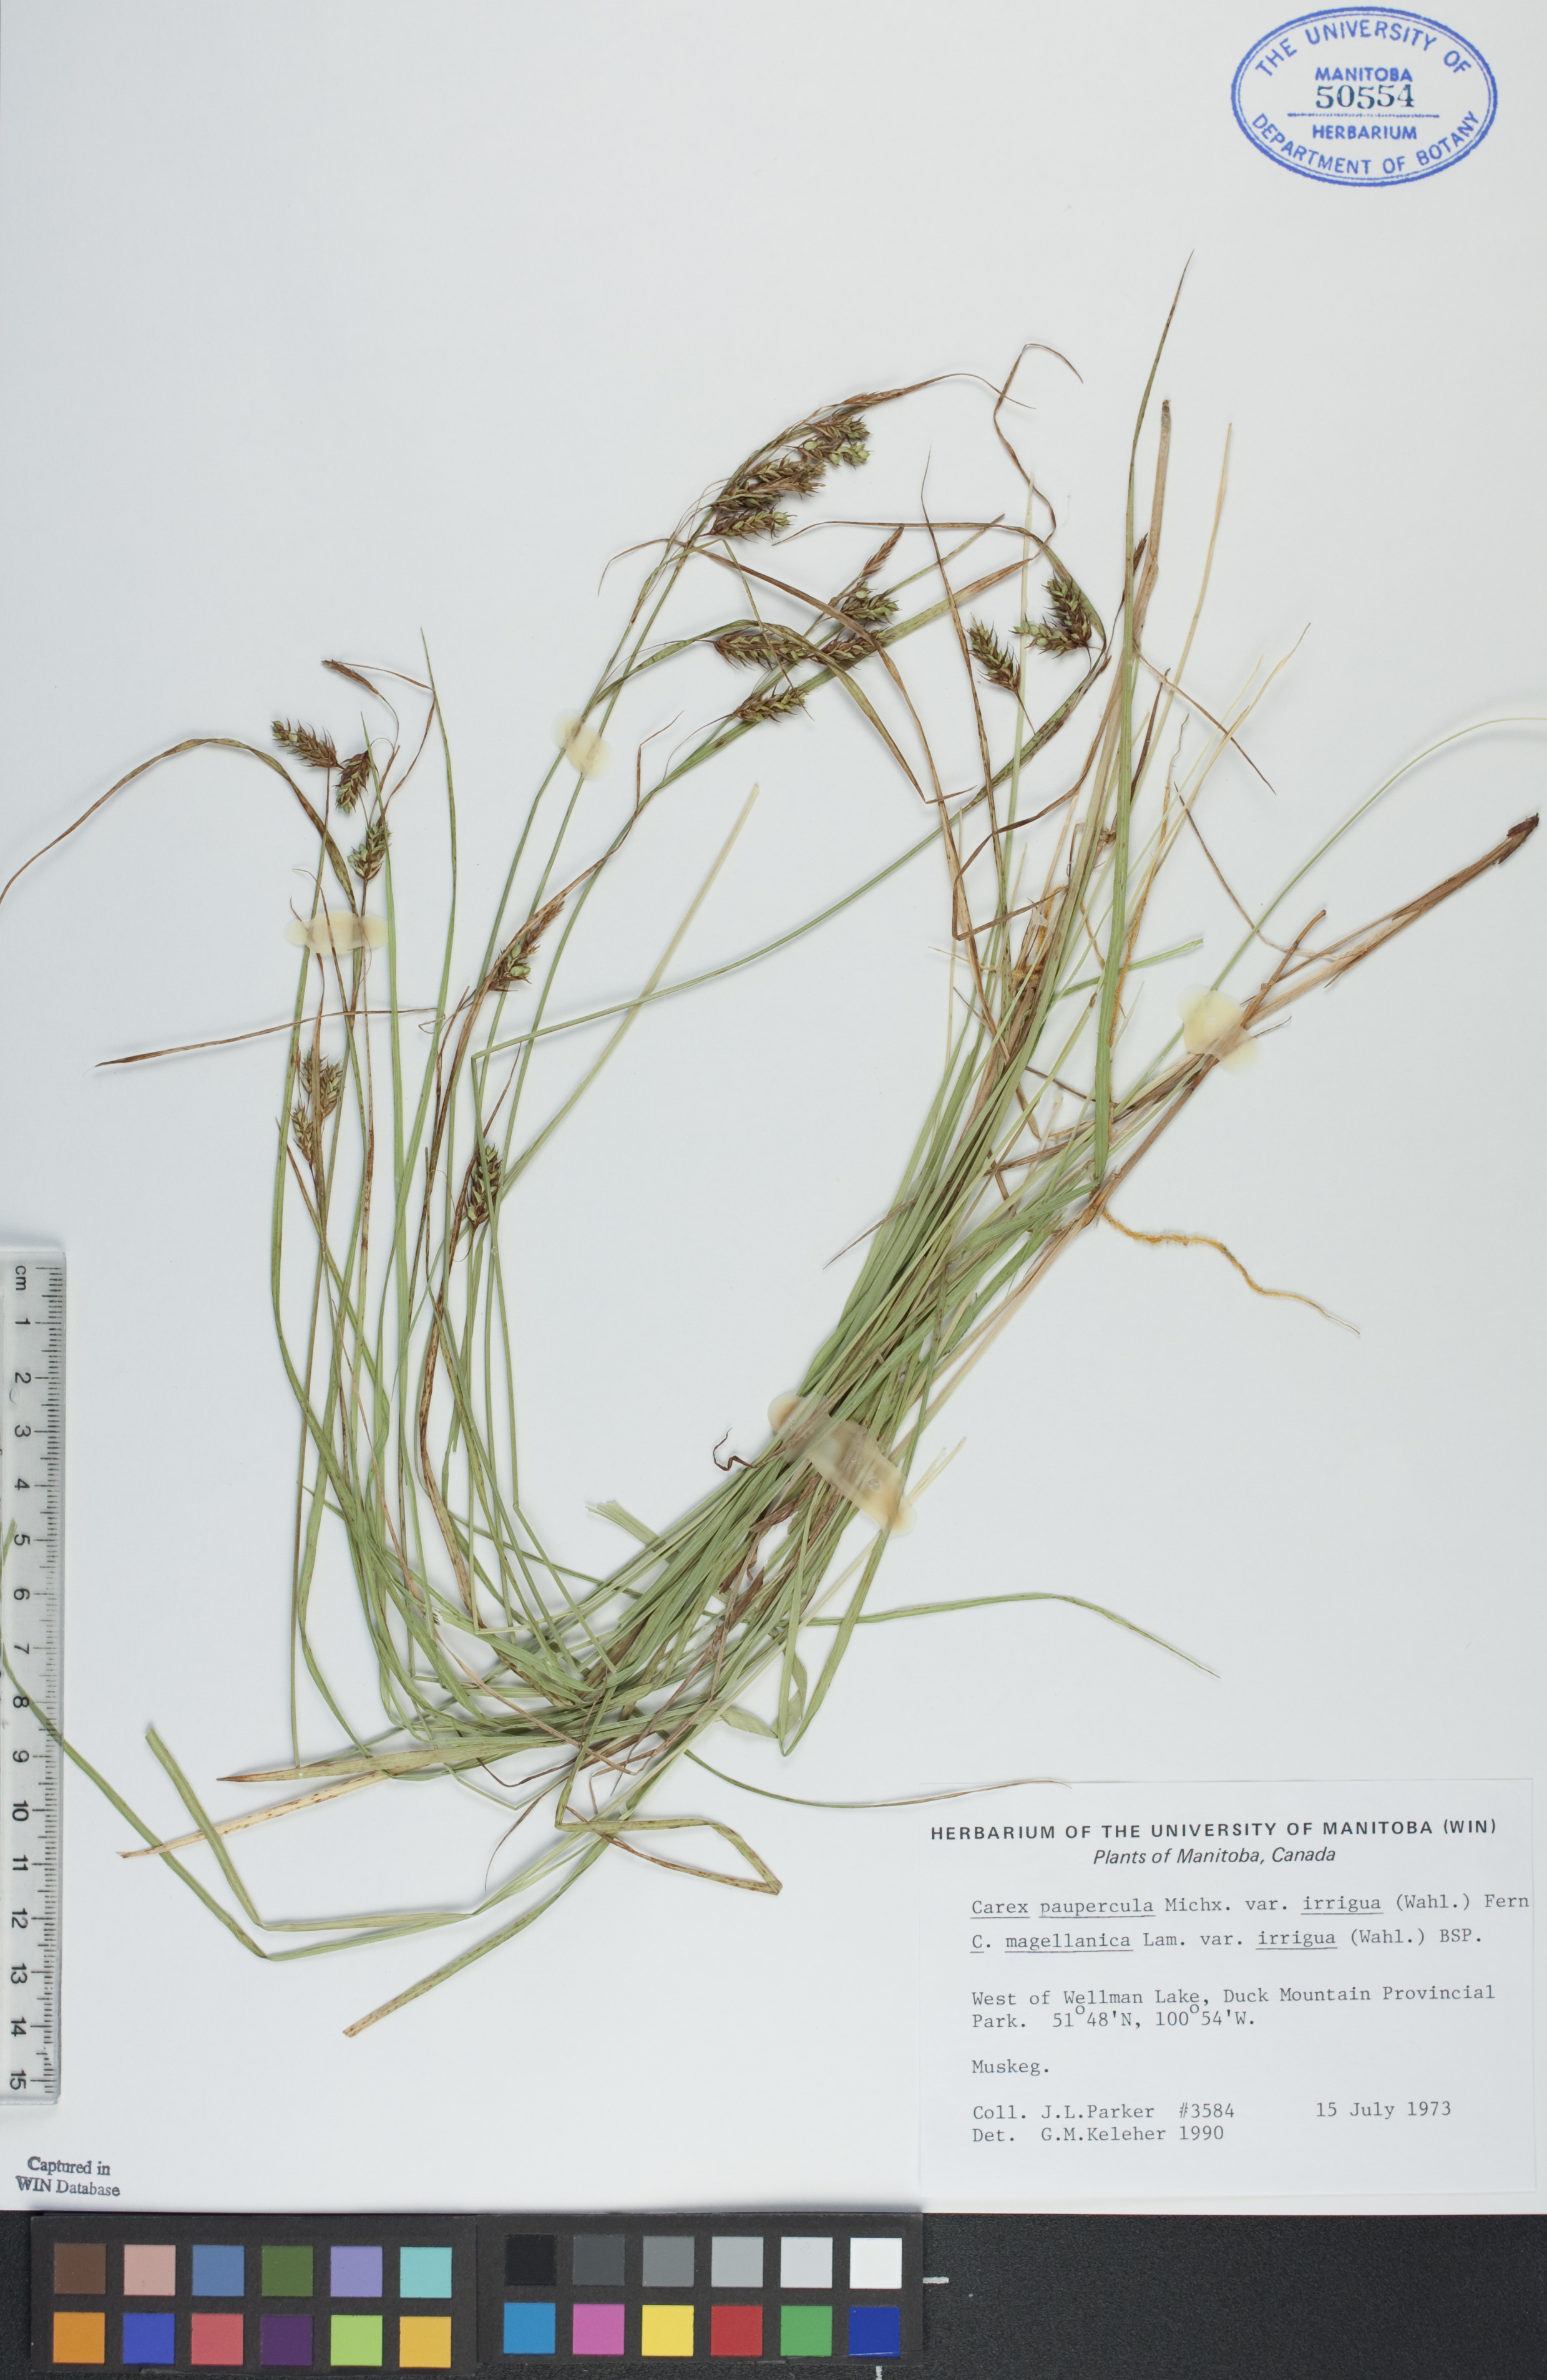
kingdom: Plantae
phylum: Tracheophyta
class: Liliopsida
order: Poales
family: Cyperaceae
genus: Carex
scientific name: Carex magellanica
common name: Bog sedge
